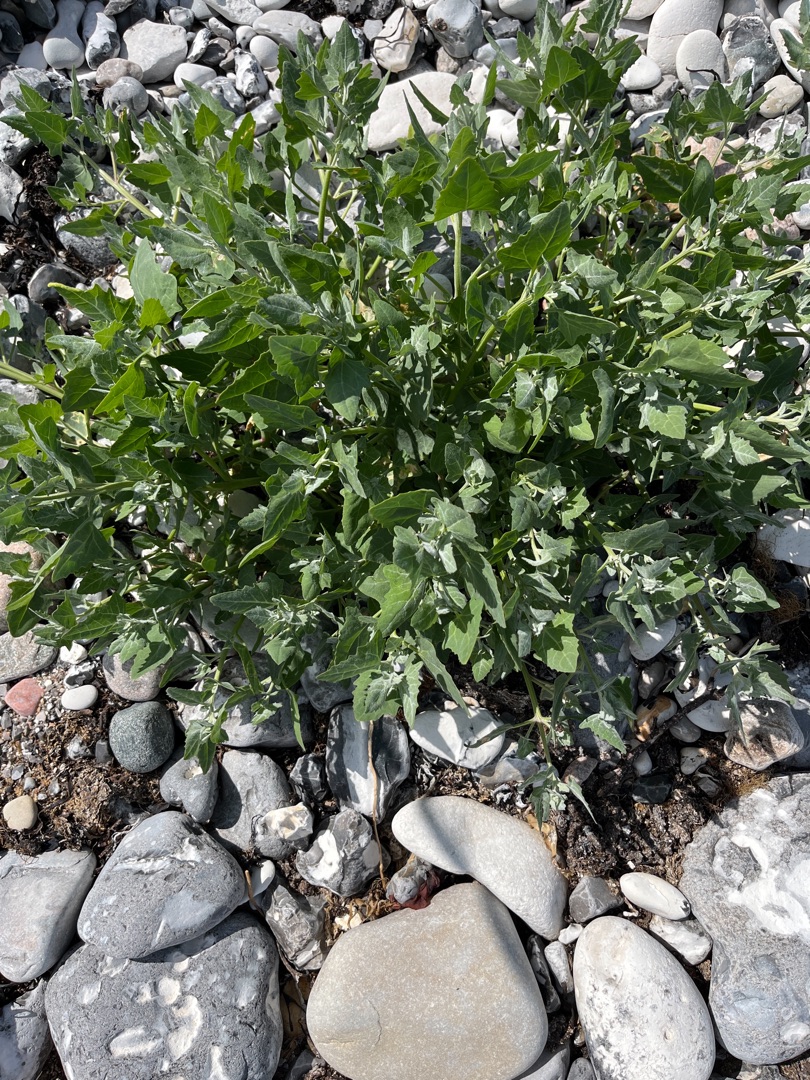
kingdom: Plantae
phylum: Tracheophyta
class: Magnoliopsida
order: Caryophyllales
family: Amaranthaceae
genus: Atriplex
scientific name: Atriplex prostrata
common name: Spyd-mælde
